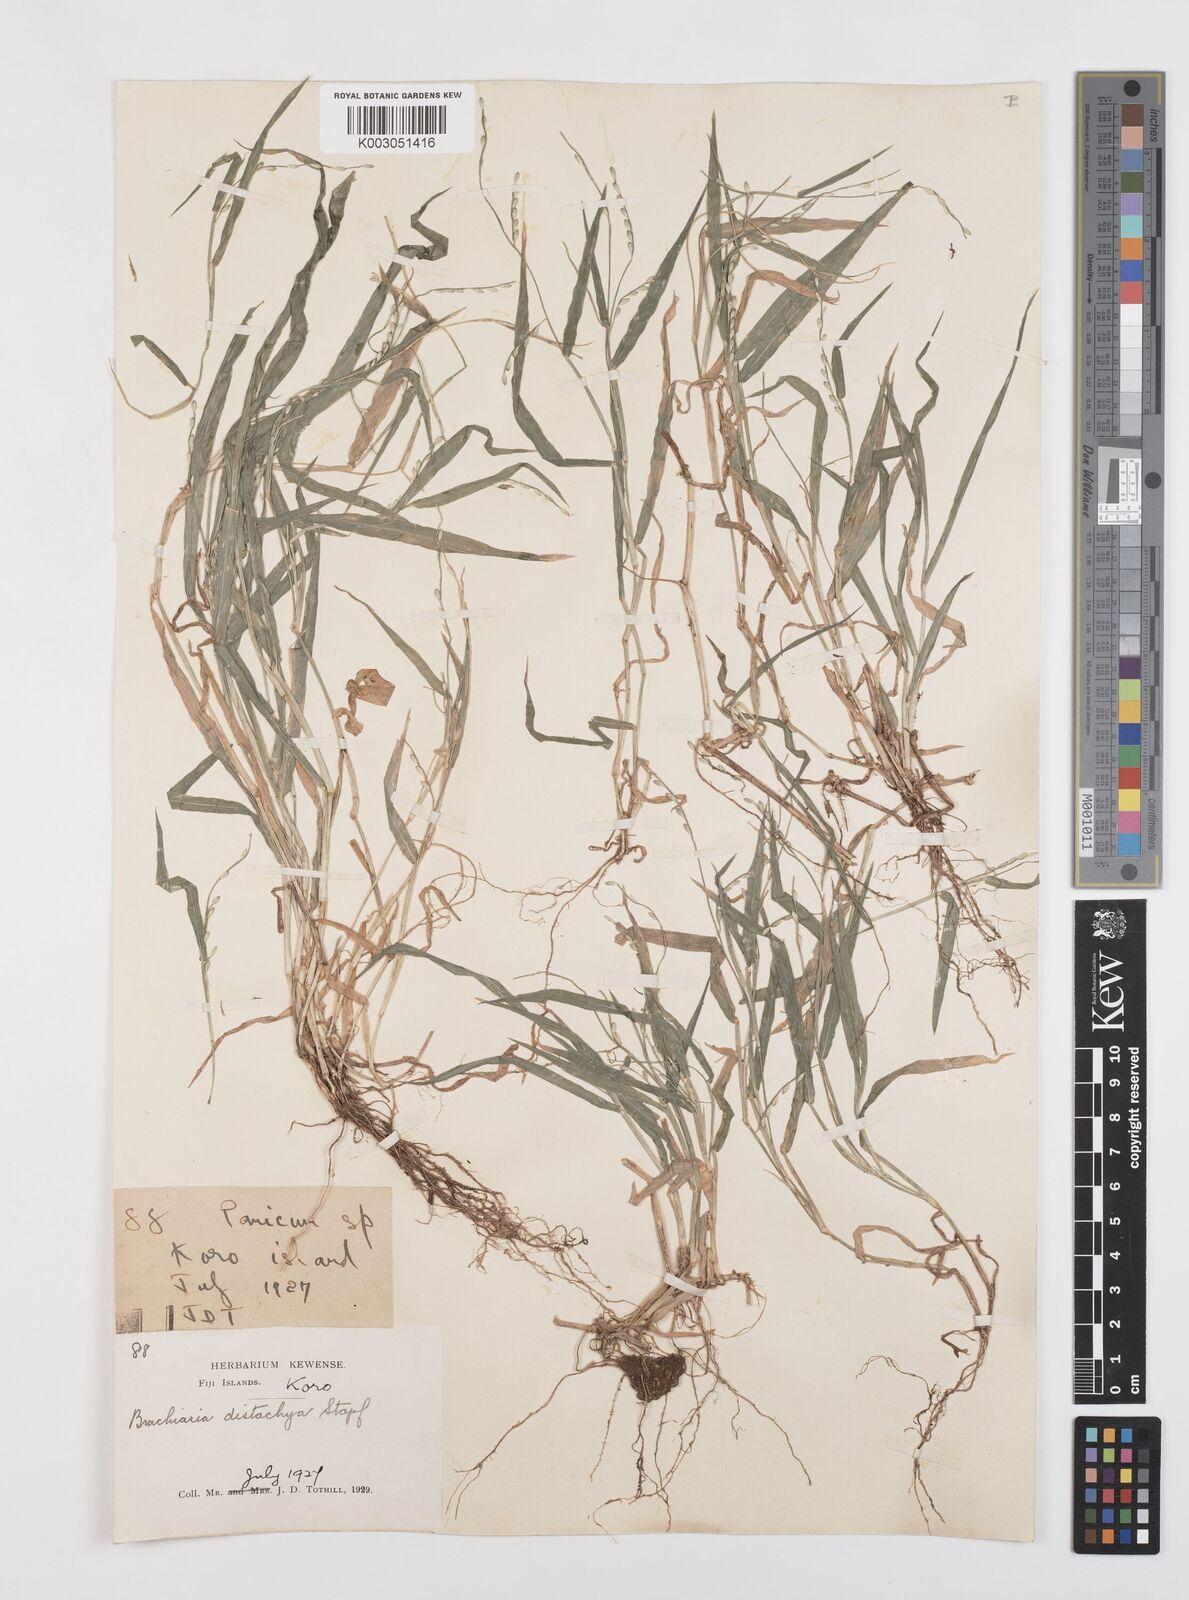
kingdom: Plantae
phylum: Tracheophyta
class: Liliopsida
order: Poales
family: Poaceae
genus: Urochloa
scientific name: Urochloa subquadripara
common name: Armgrass millet
